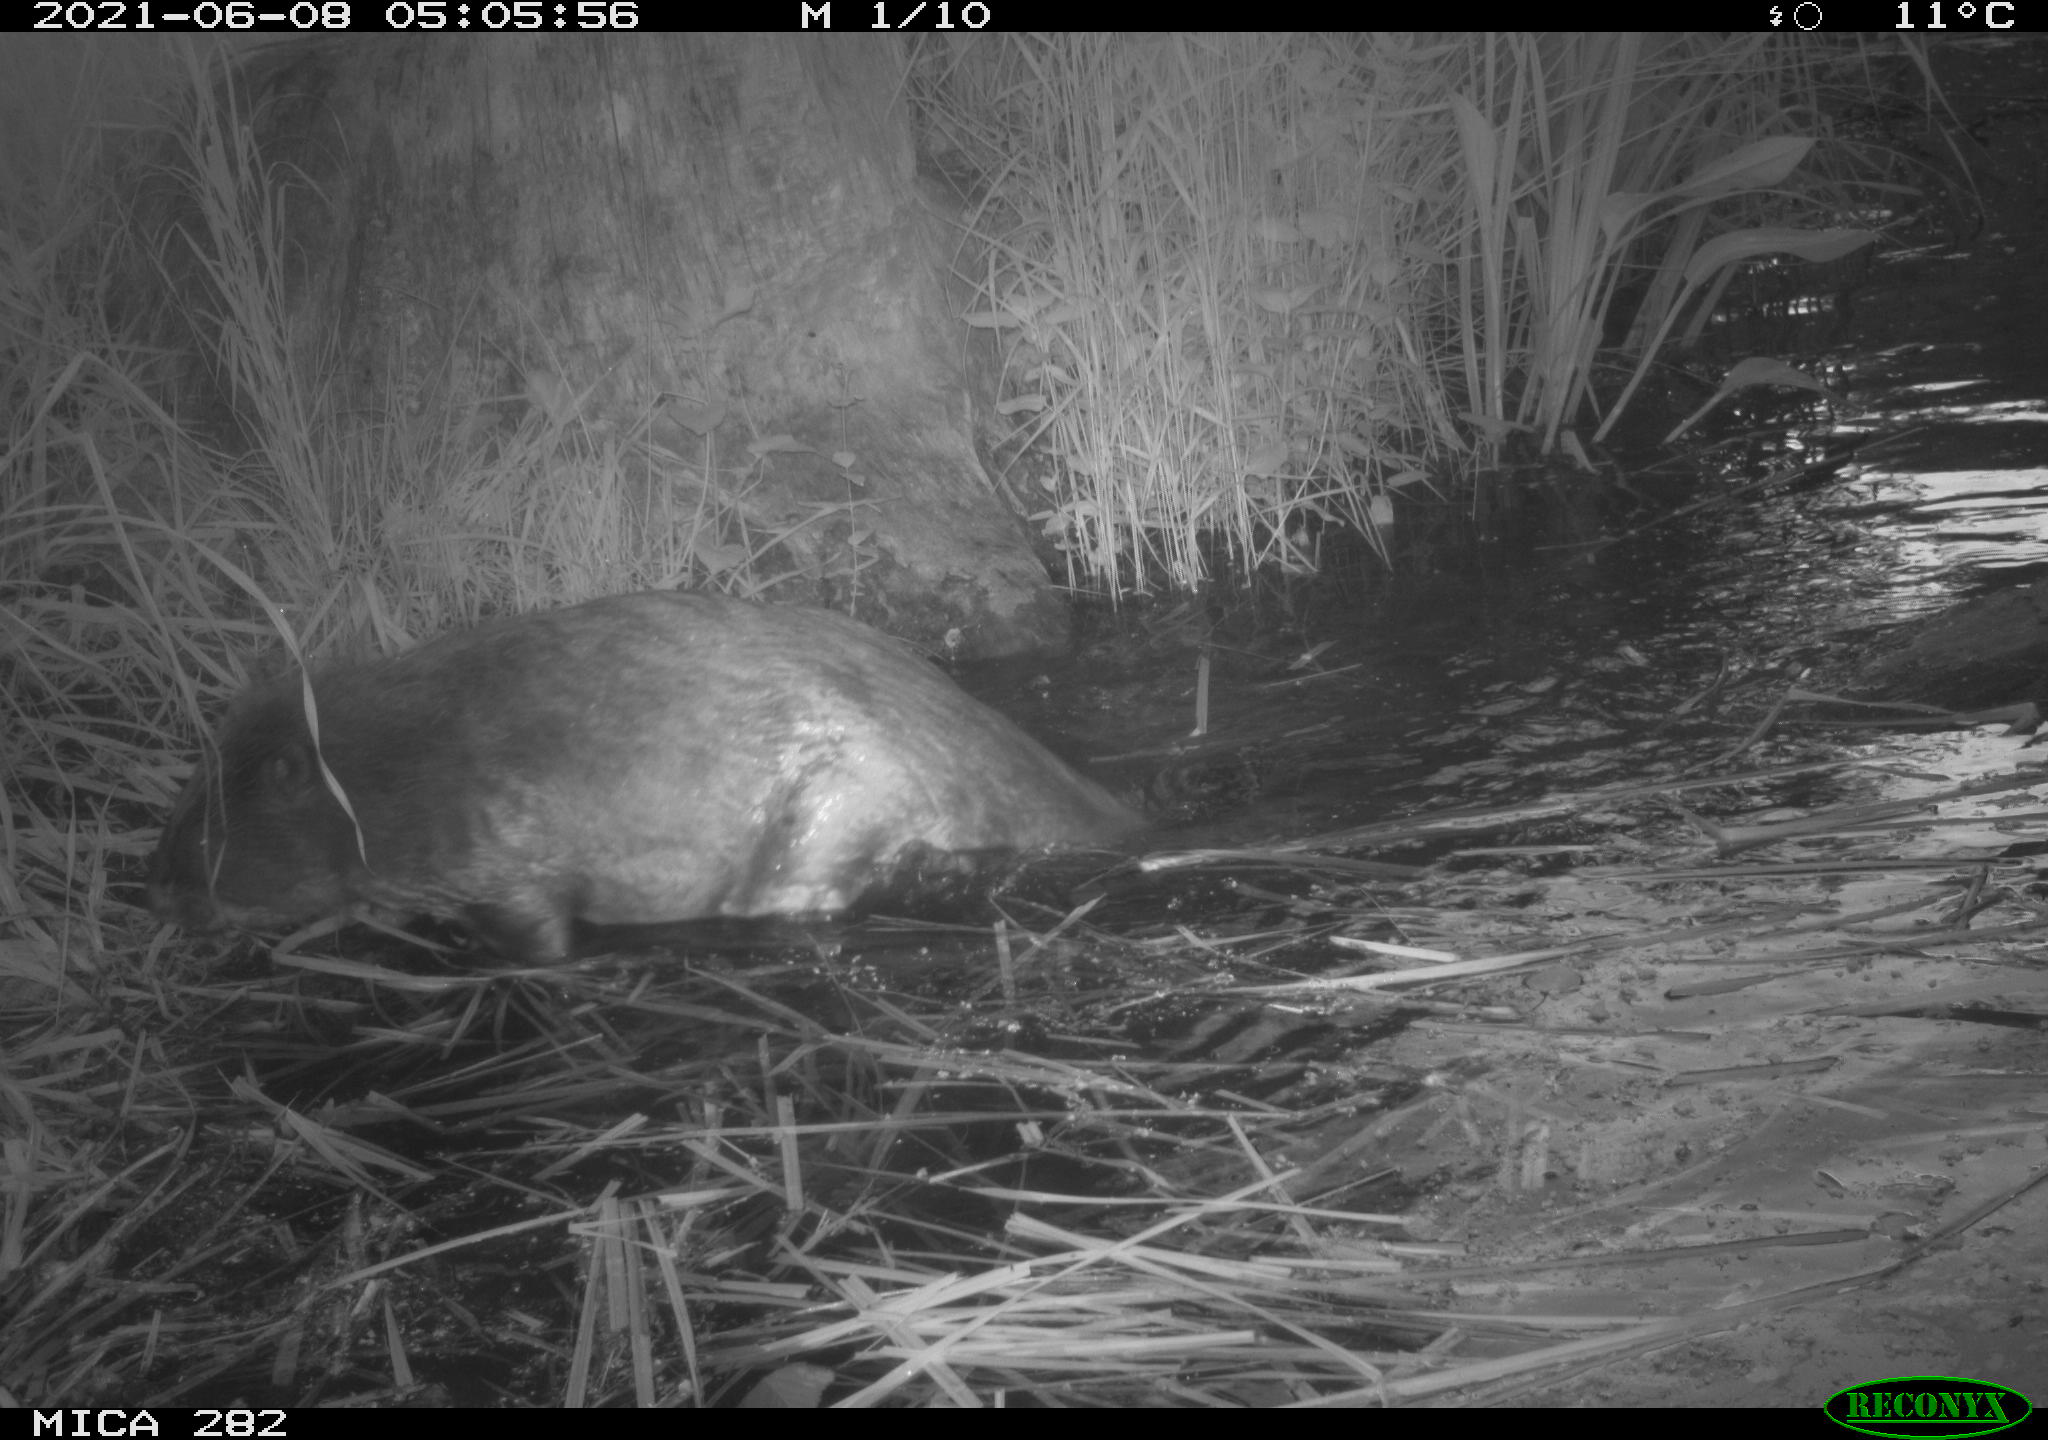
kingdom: Animalia
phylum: Chordata
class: Mammalia
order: Rodentia
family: Castoridae
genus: Castor
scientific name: Castor fiber
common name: Eurasian beaver
